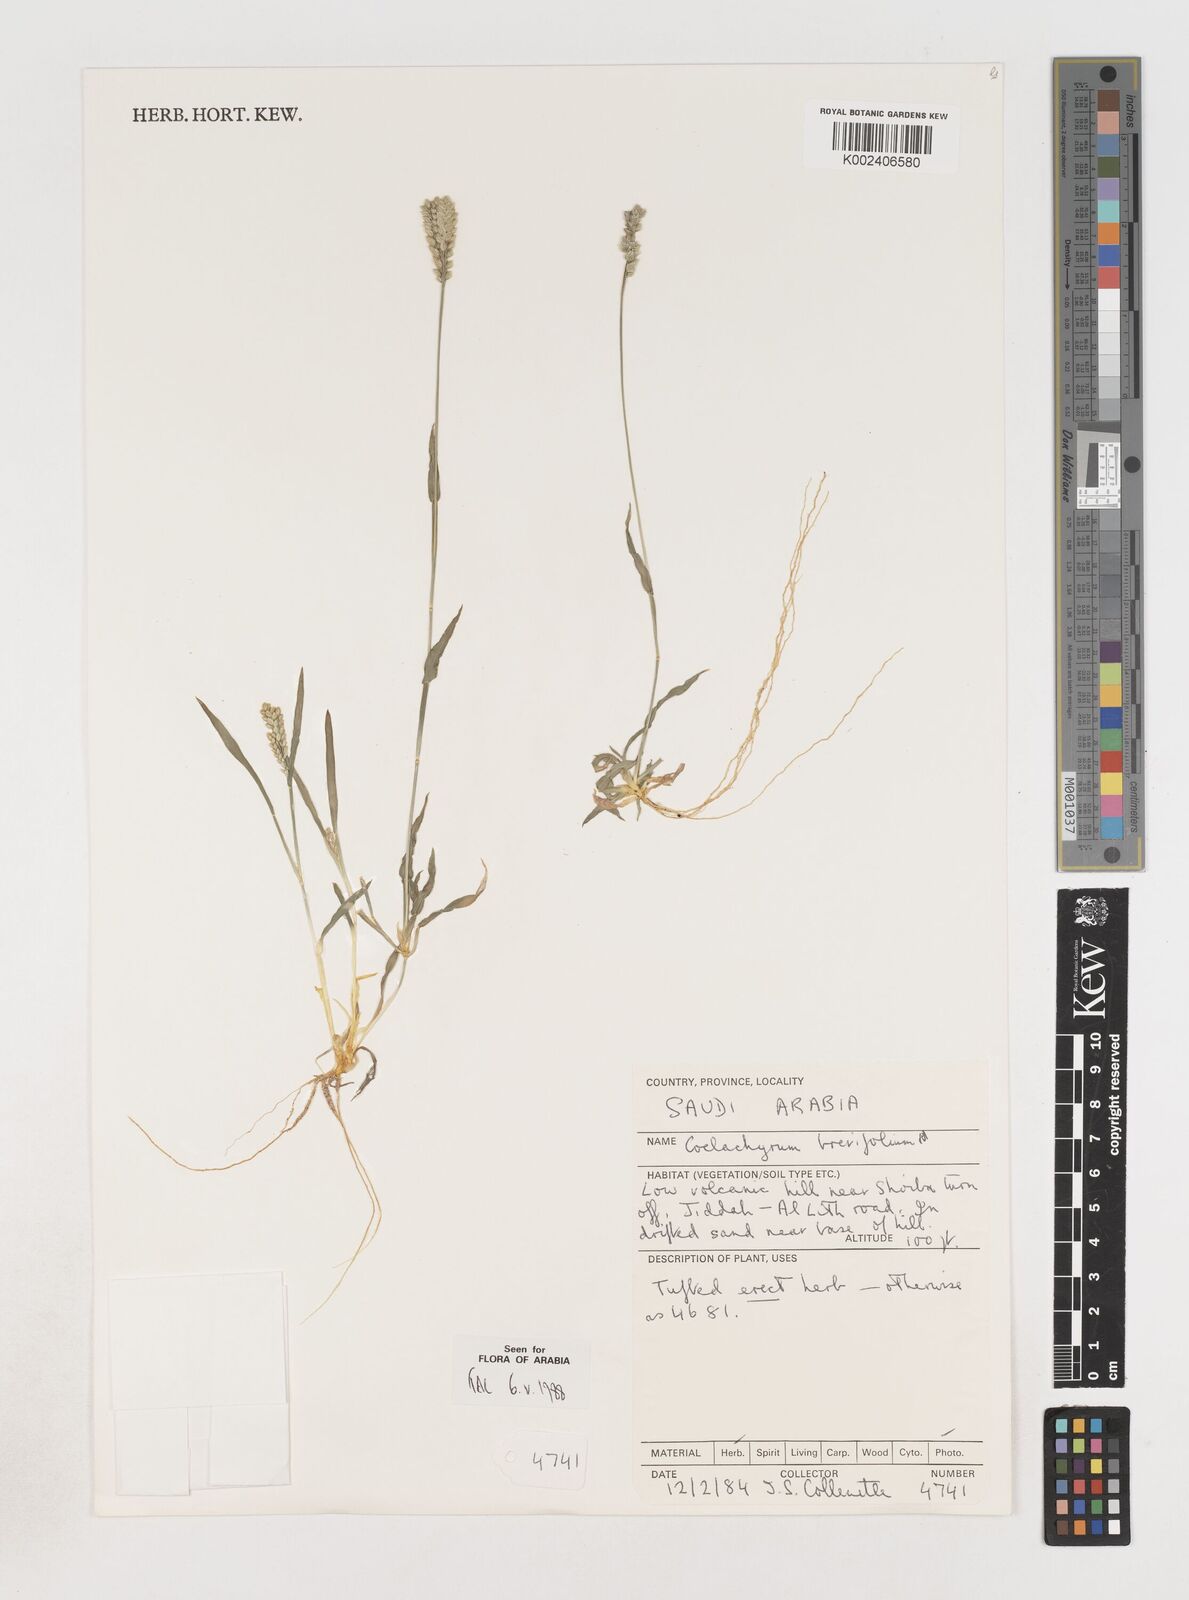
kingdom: Plantae
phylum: Tracheophyta
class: Liliopsida
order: Poales
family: Poaceae
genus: Coelachyrum
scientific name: Coelachyrum brevifolium
